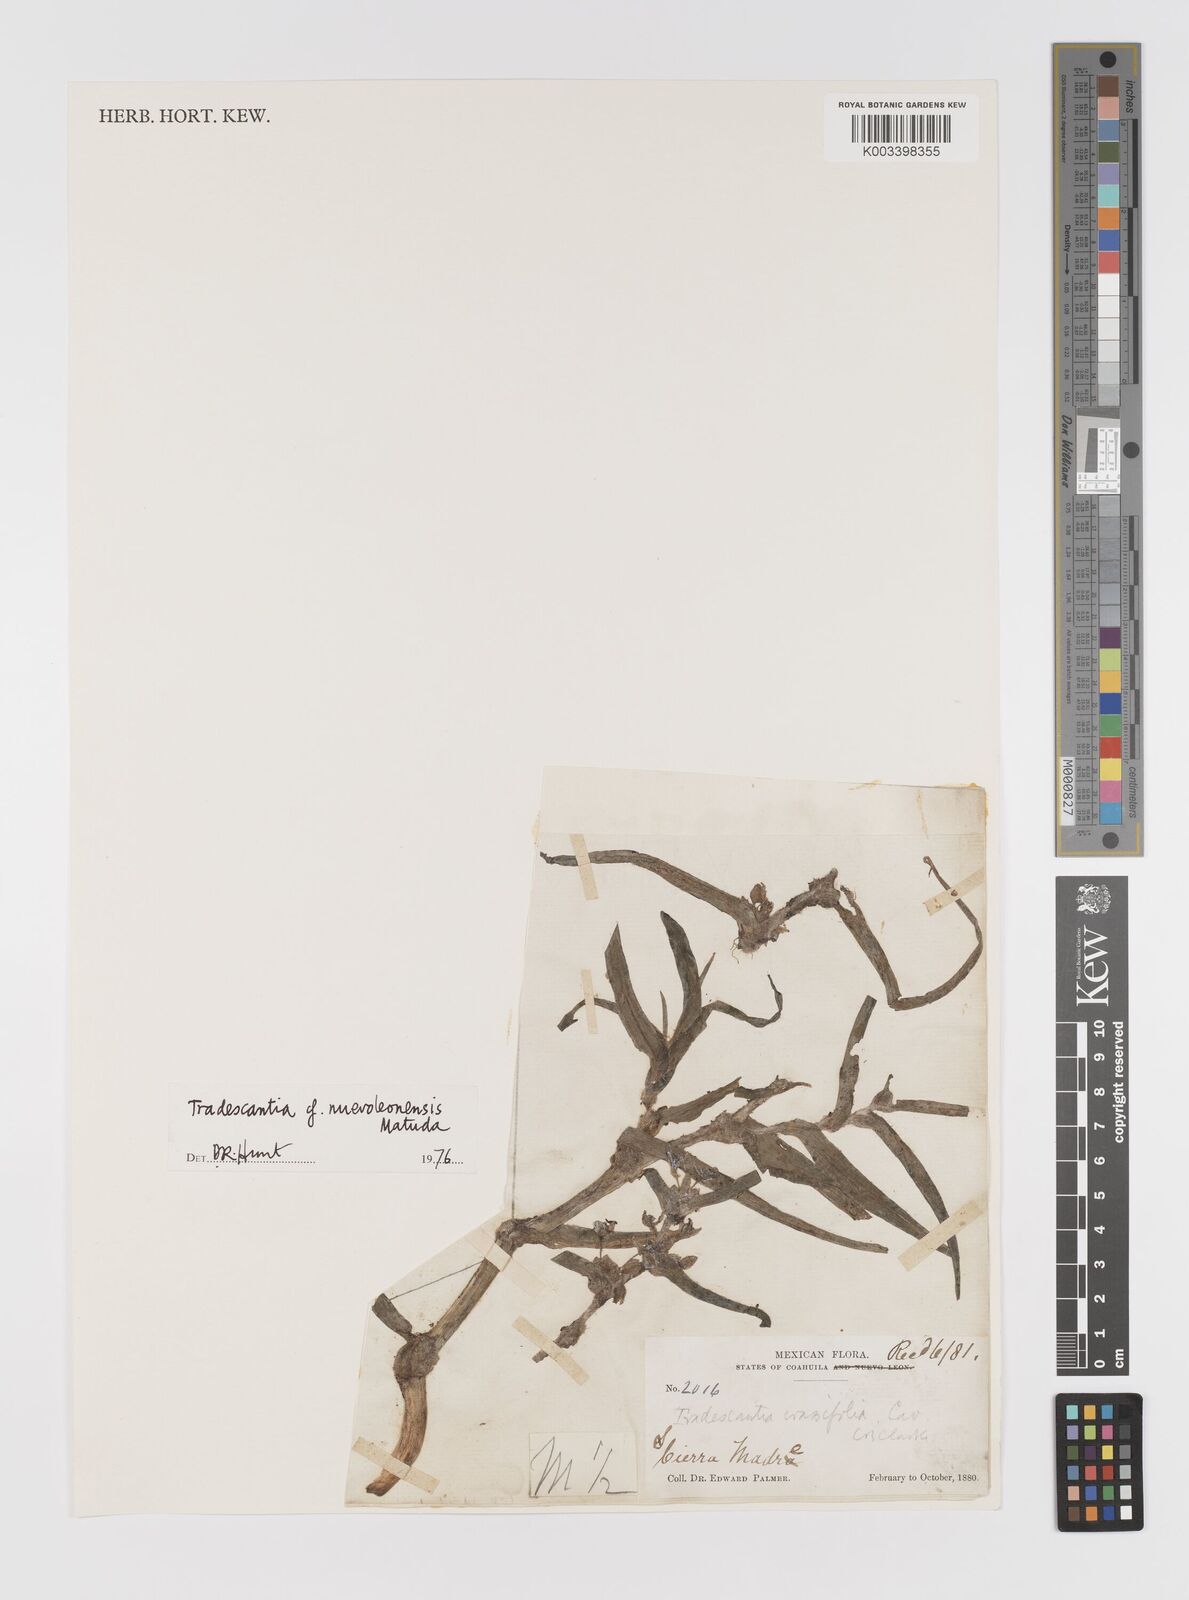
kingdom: Plantae
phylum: Tracheophyta
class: Liliopsida
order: Commelinales
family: Commelinaceae
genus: Tradescantia
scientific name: Tradescantia nuevoleonensis
